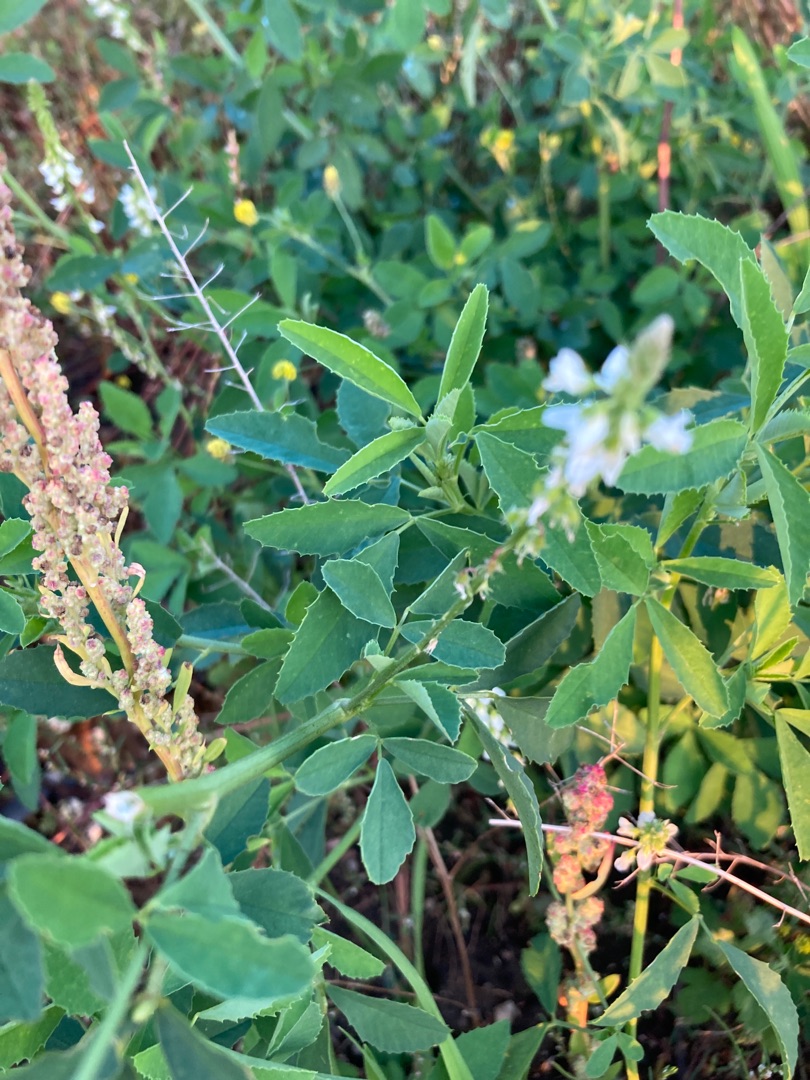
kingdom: Plantae
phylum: Tracheophyta
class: Magnoliopsida
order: Fabales
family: Fabaceae
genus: Melilotus
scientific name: Melilotus albus
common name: Hvid stenkløver
